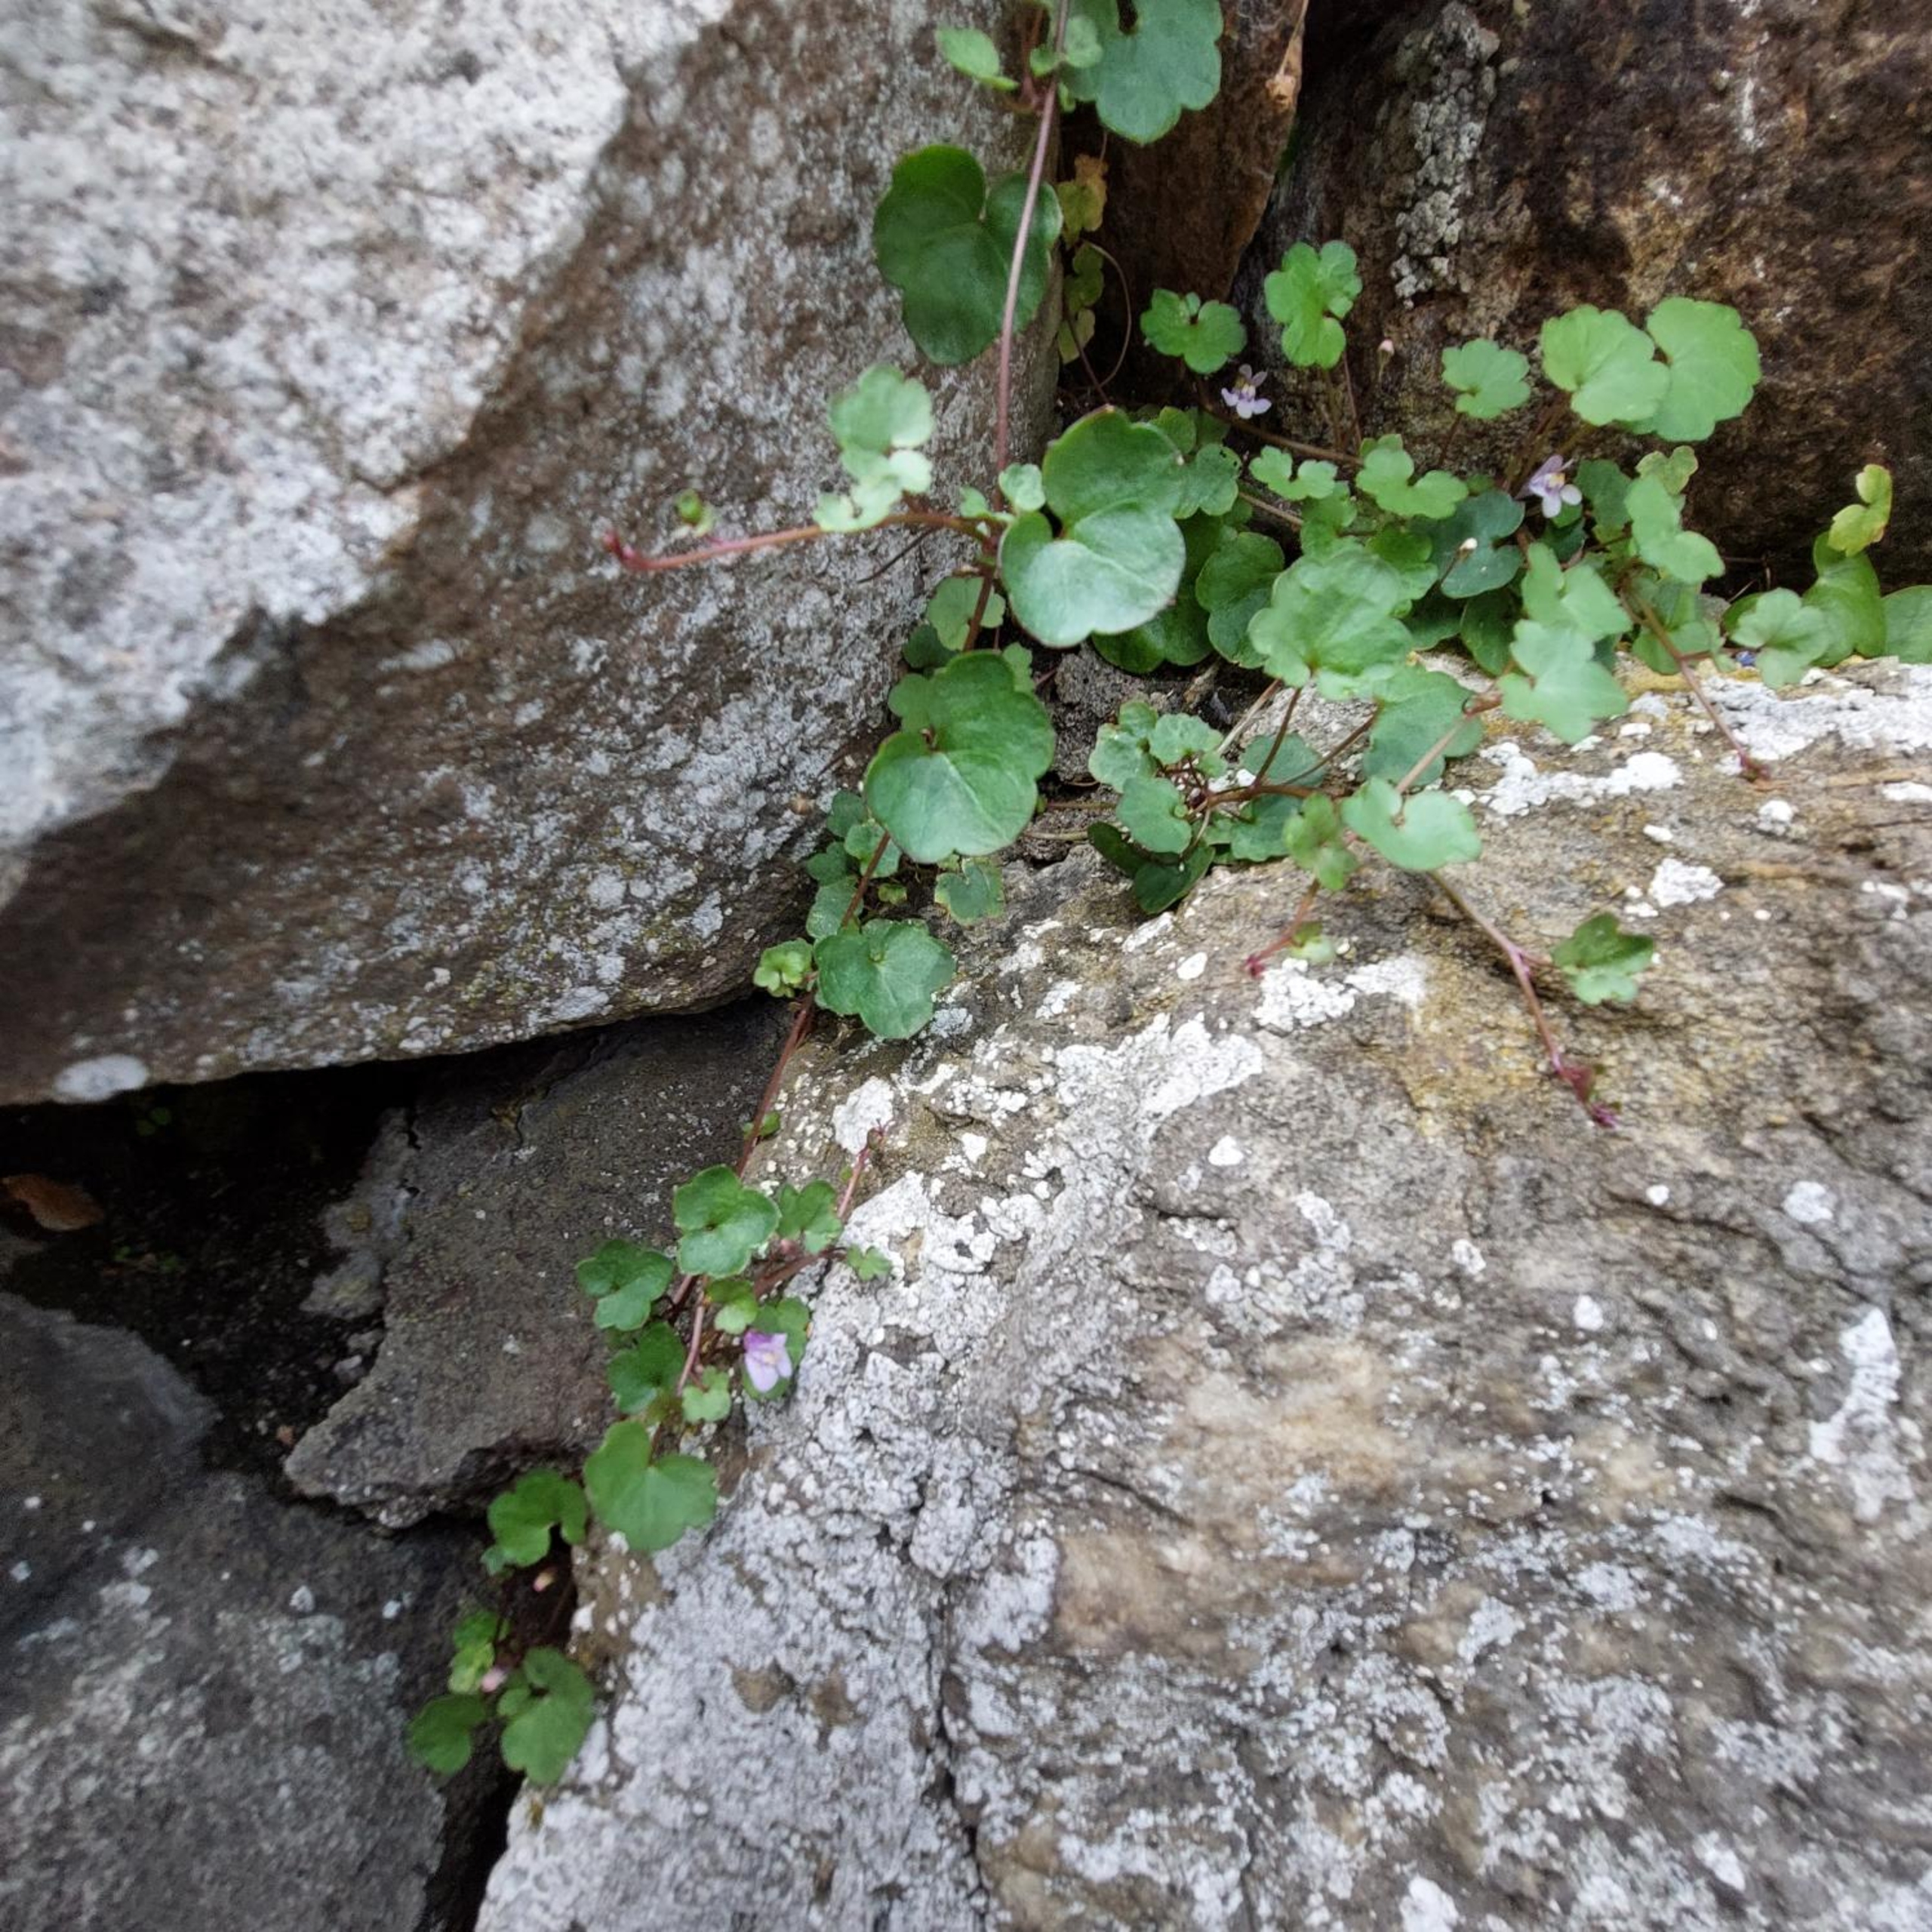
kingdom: Plantae
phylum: Tracheophyta
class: Magnoliopsida
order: Lamiales
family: Plantaginaceae
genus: Cymbalaria
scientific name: Cymbalaria muralis
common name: Vedbend-torskemund
